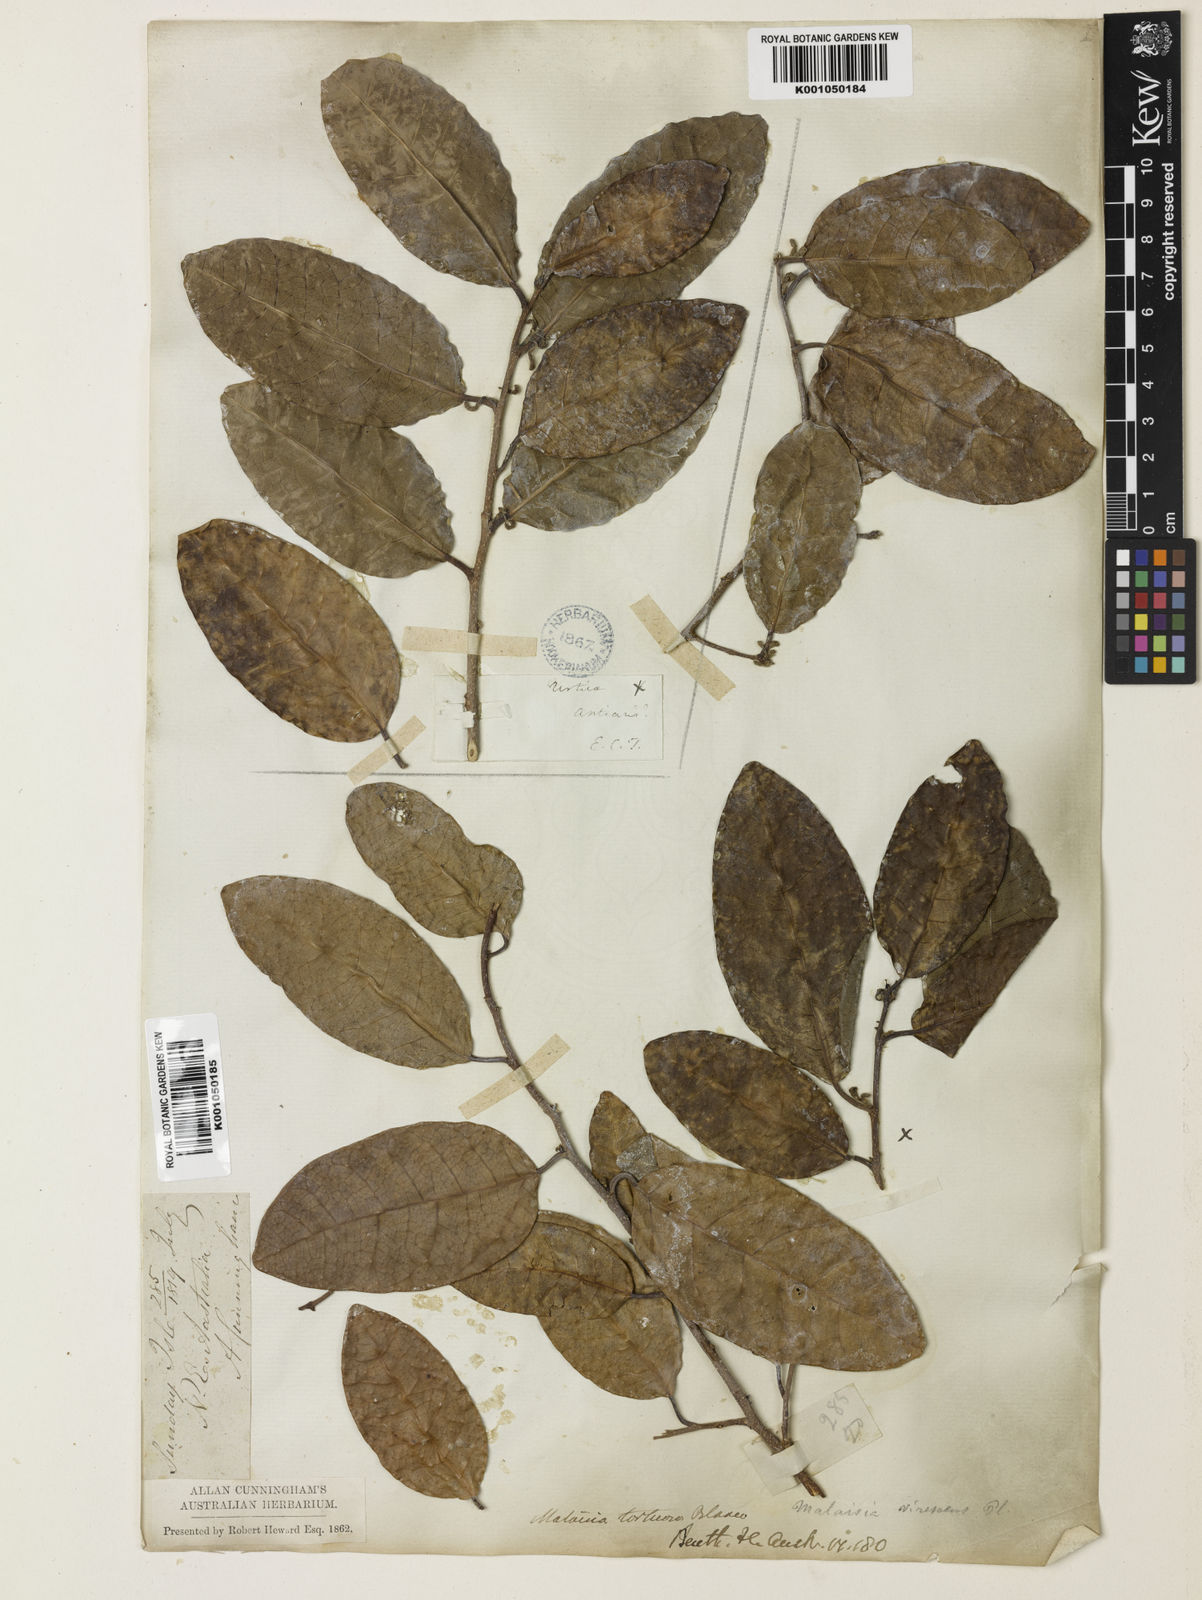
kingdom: Plantae
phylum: Tracheophyta
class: Magnoliopsida
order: Rosales
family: Moraceae
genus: Malaisia
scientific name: Malaisia scandens
